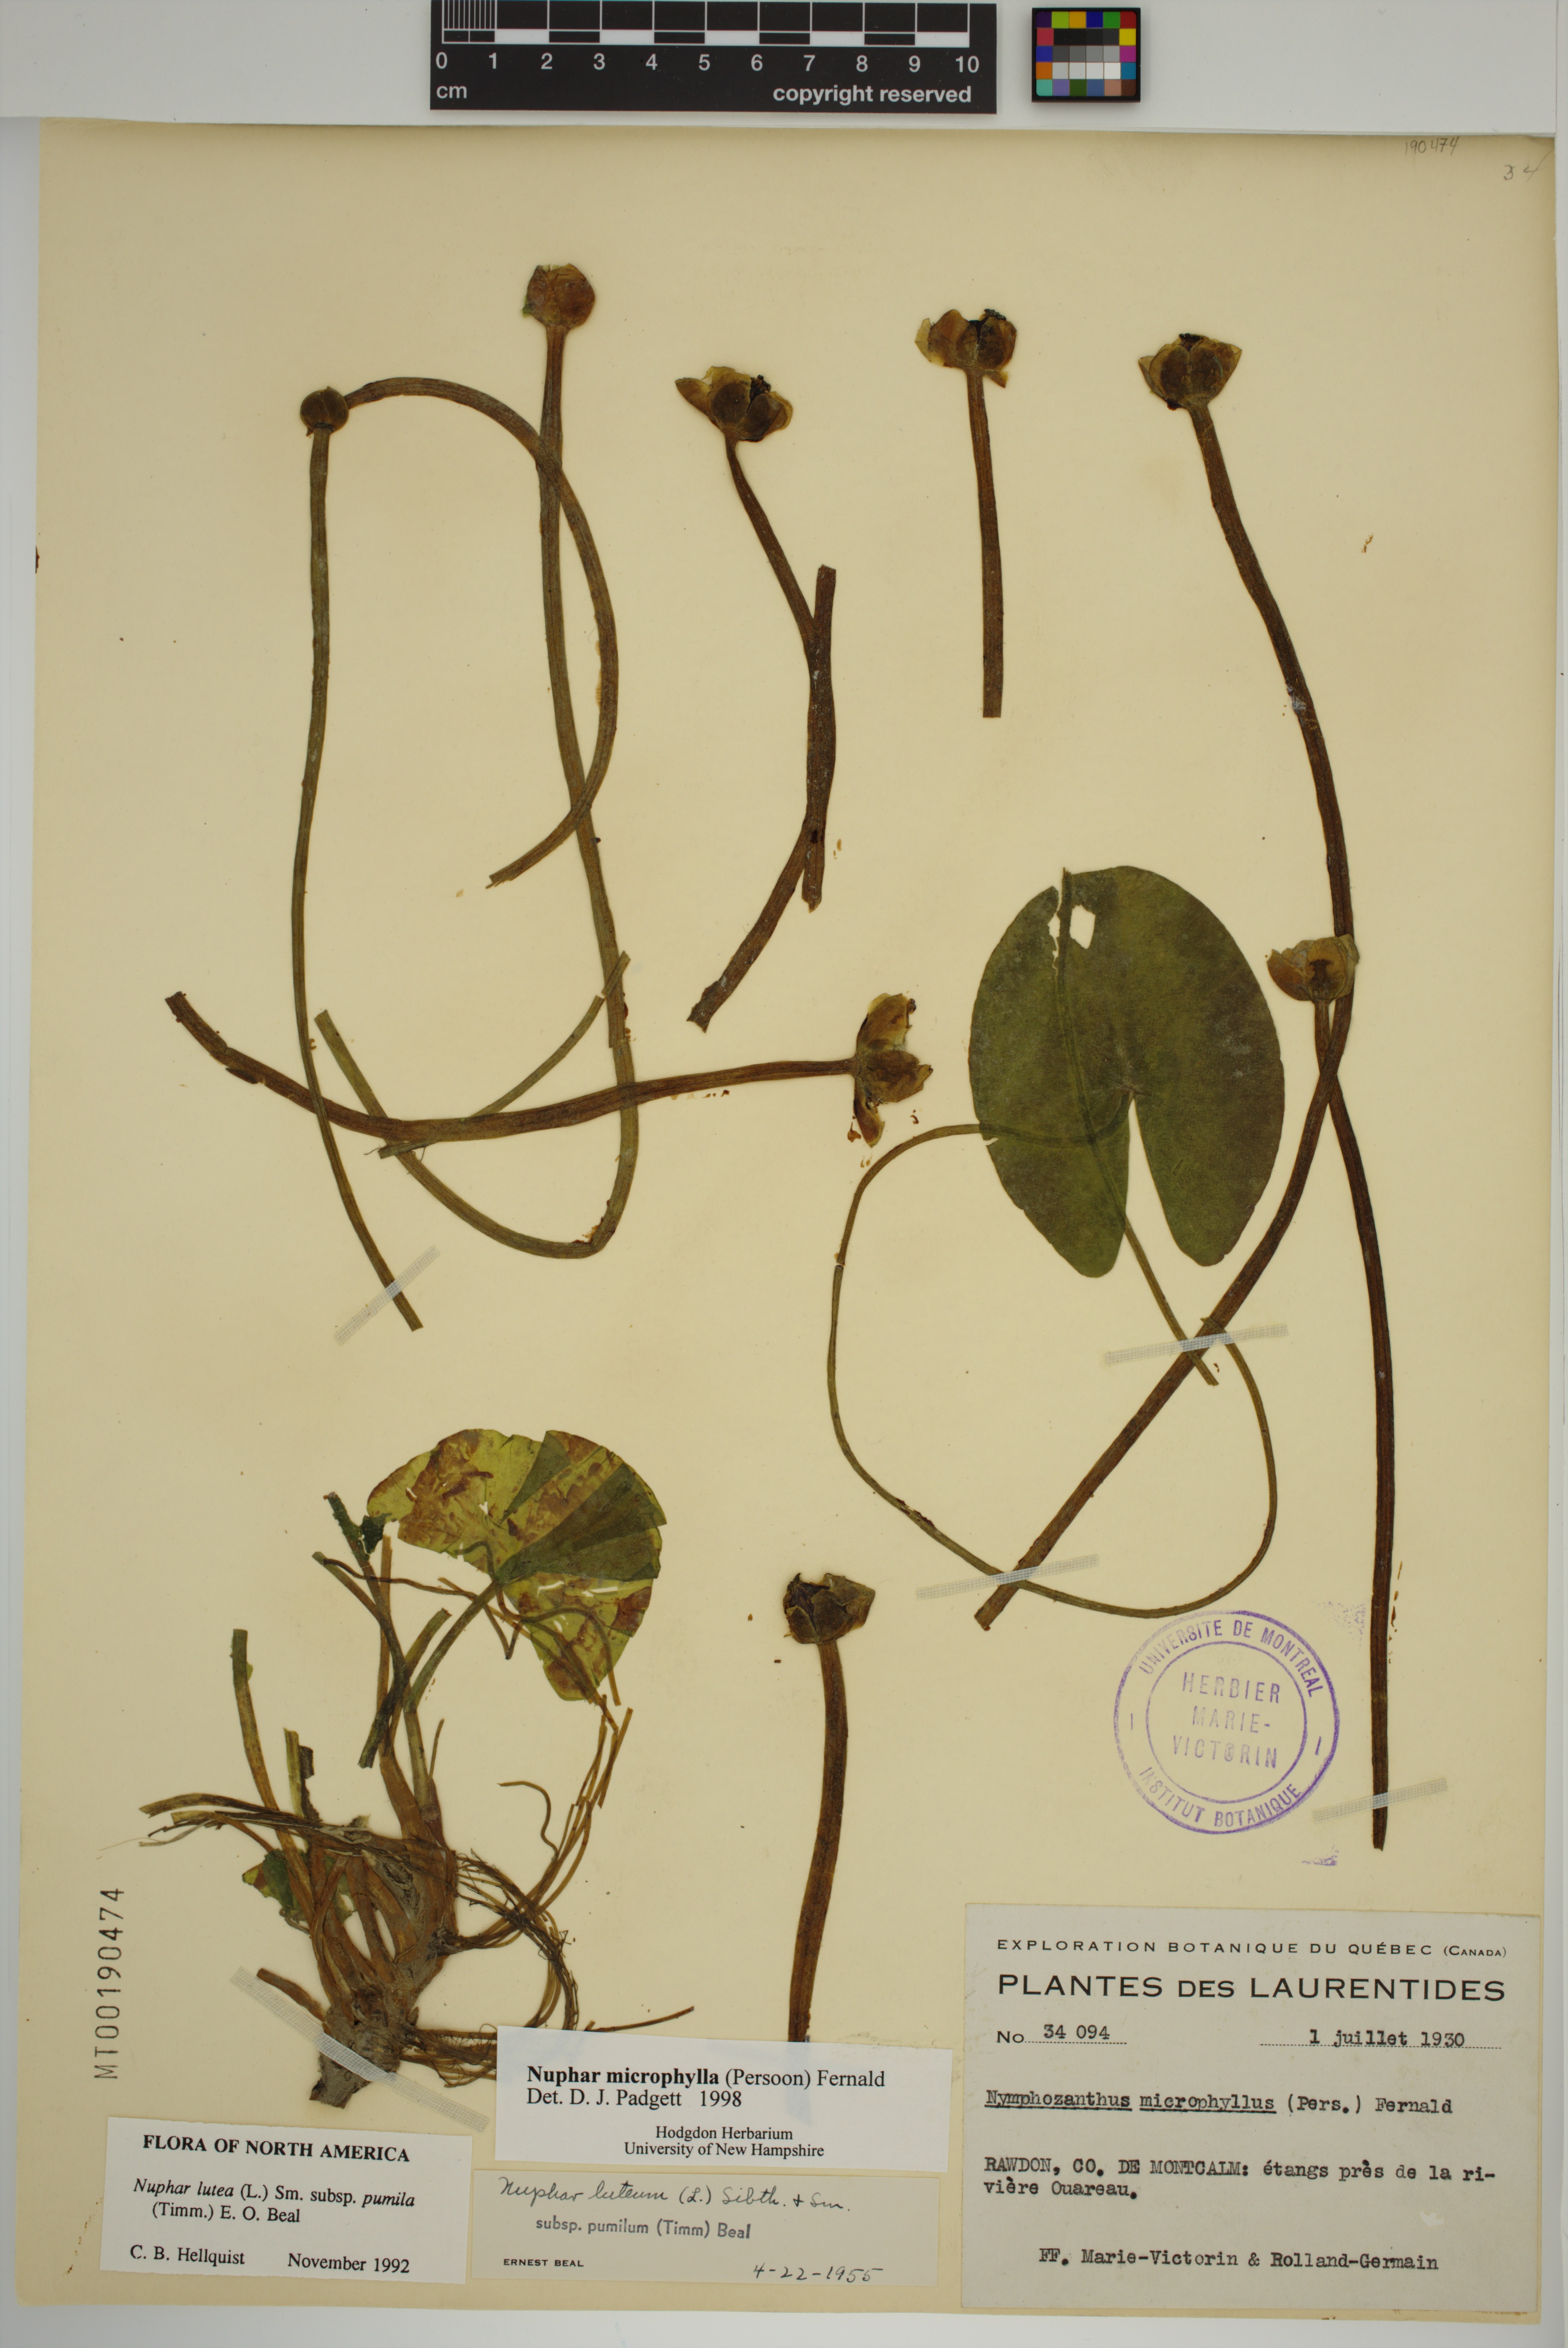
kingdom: Plantae
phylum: Tracheophyta
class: Magnoliopsida
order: Nymphaeales
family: Nymphaeaceae
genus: Nuphar
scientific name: Nuphar microphylla
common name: Small pond-lily
